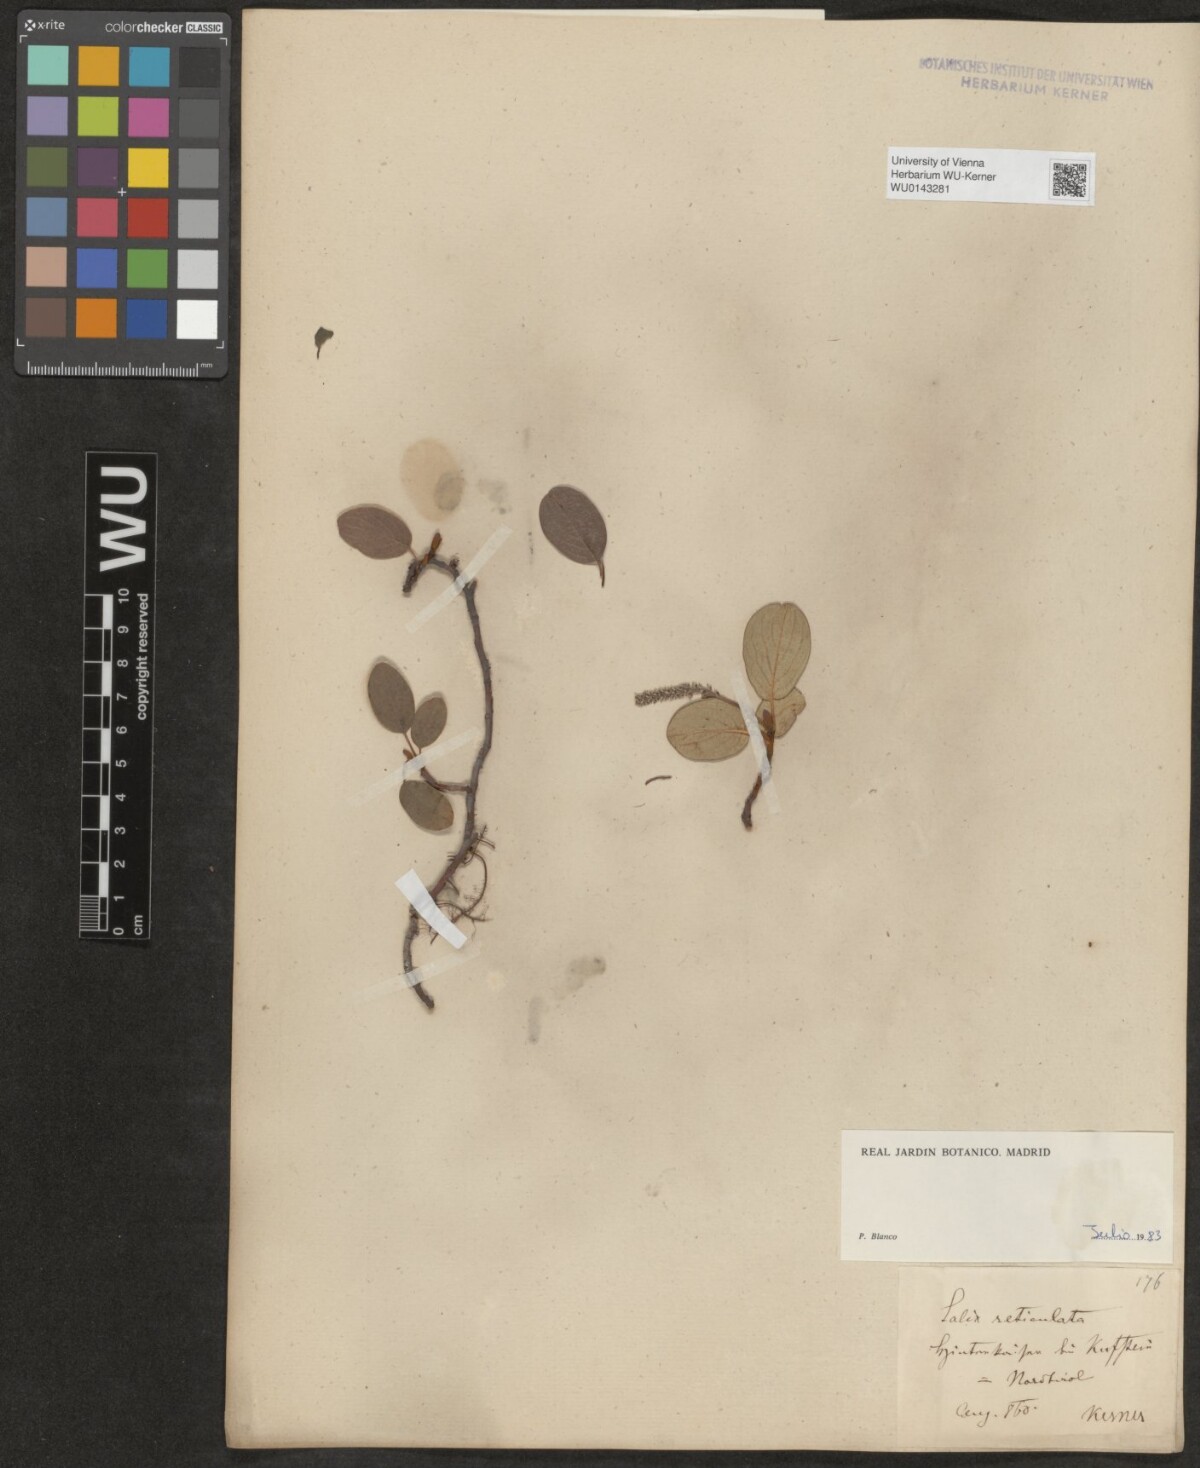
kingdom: Plantae
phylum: Tracheophyta
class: Magnoliopsida
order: Malpighiales
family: Salicaceae
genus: Salix
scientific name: Salix reticulata
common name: Net-leaved willow
